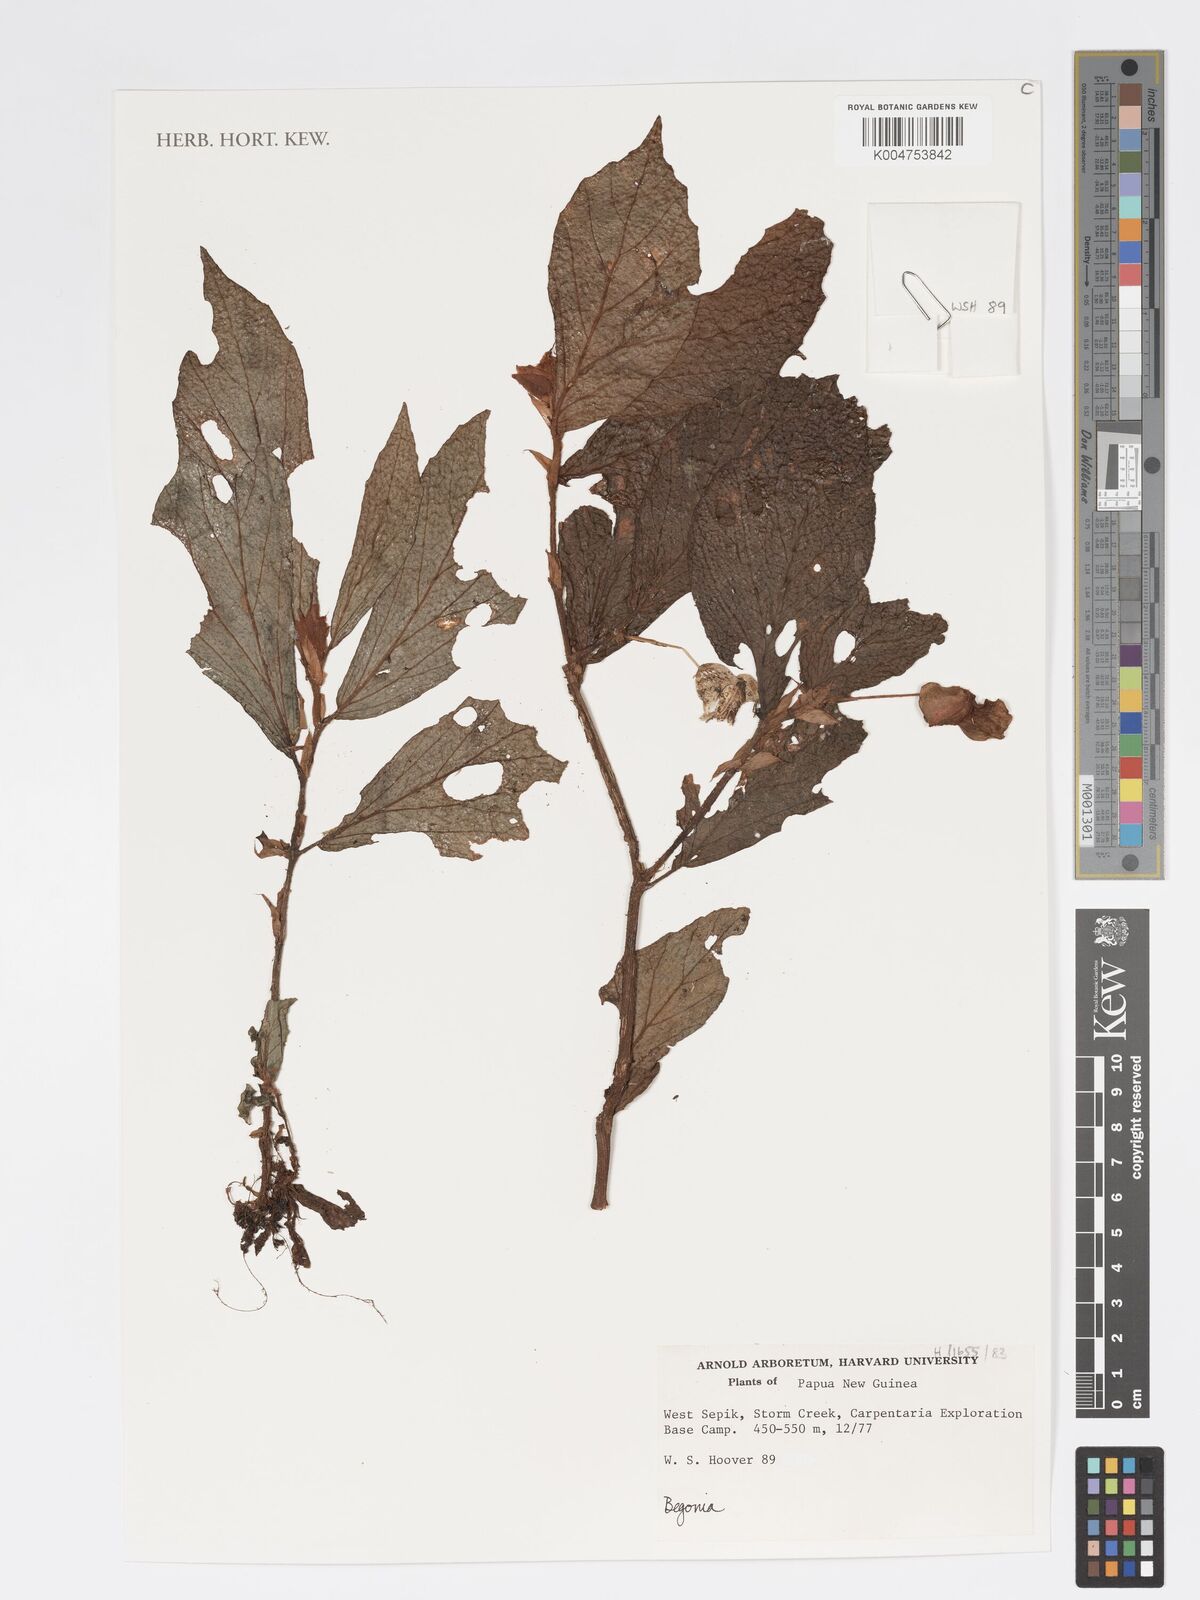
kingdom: Plantae
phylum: Tracheophyta
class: Magnoliopsida
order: Cucurbitales
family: Begoniaceae
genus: Begonia
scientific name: Begonia
